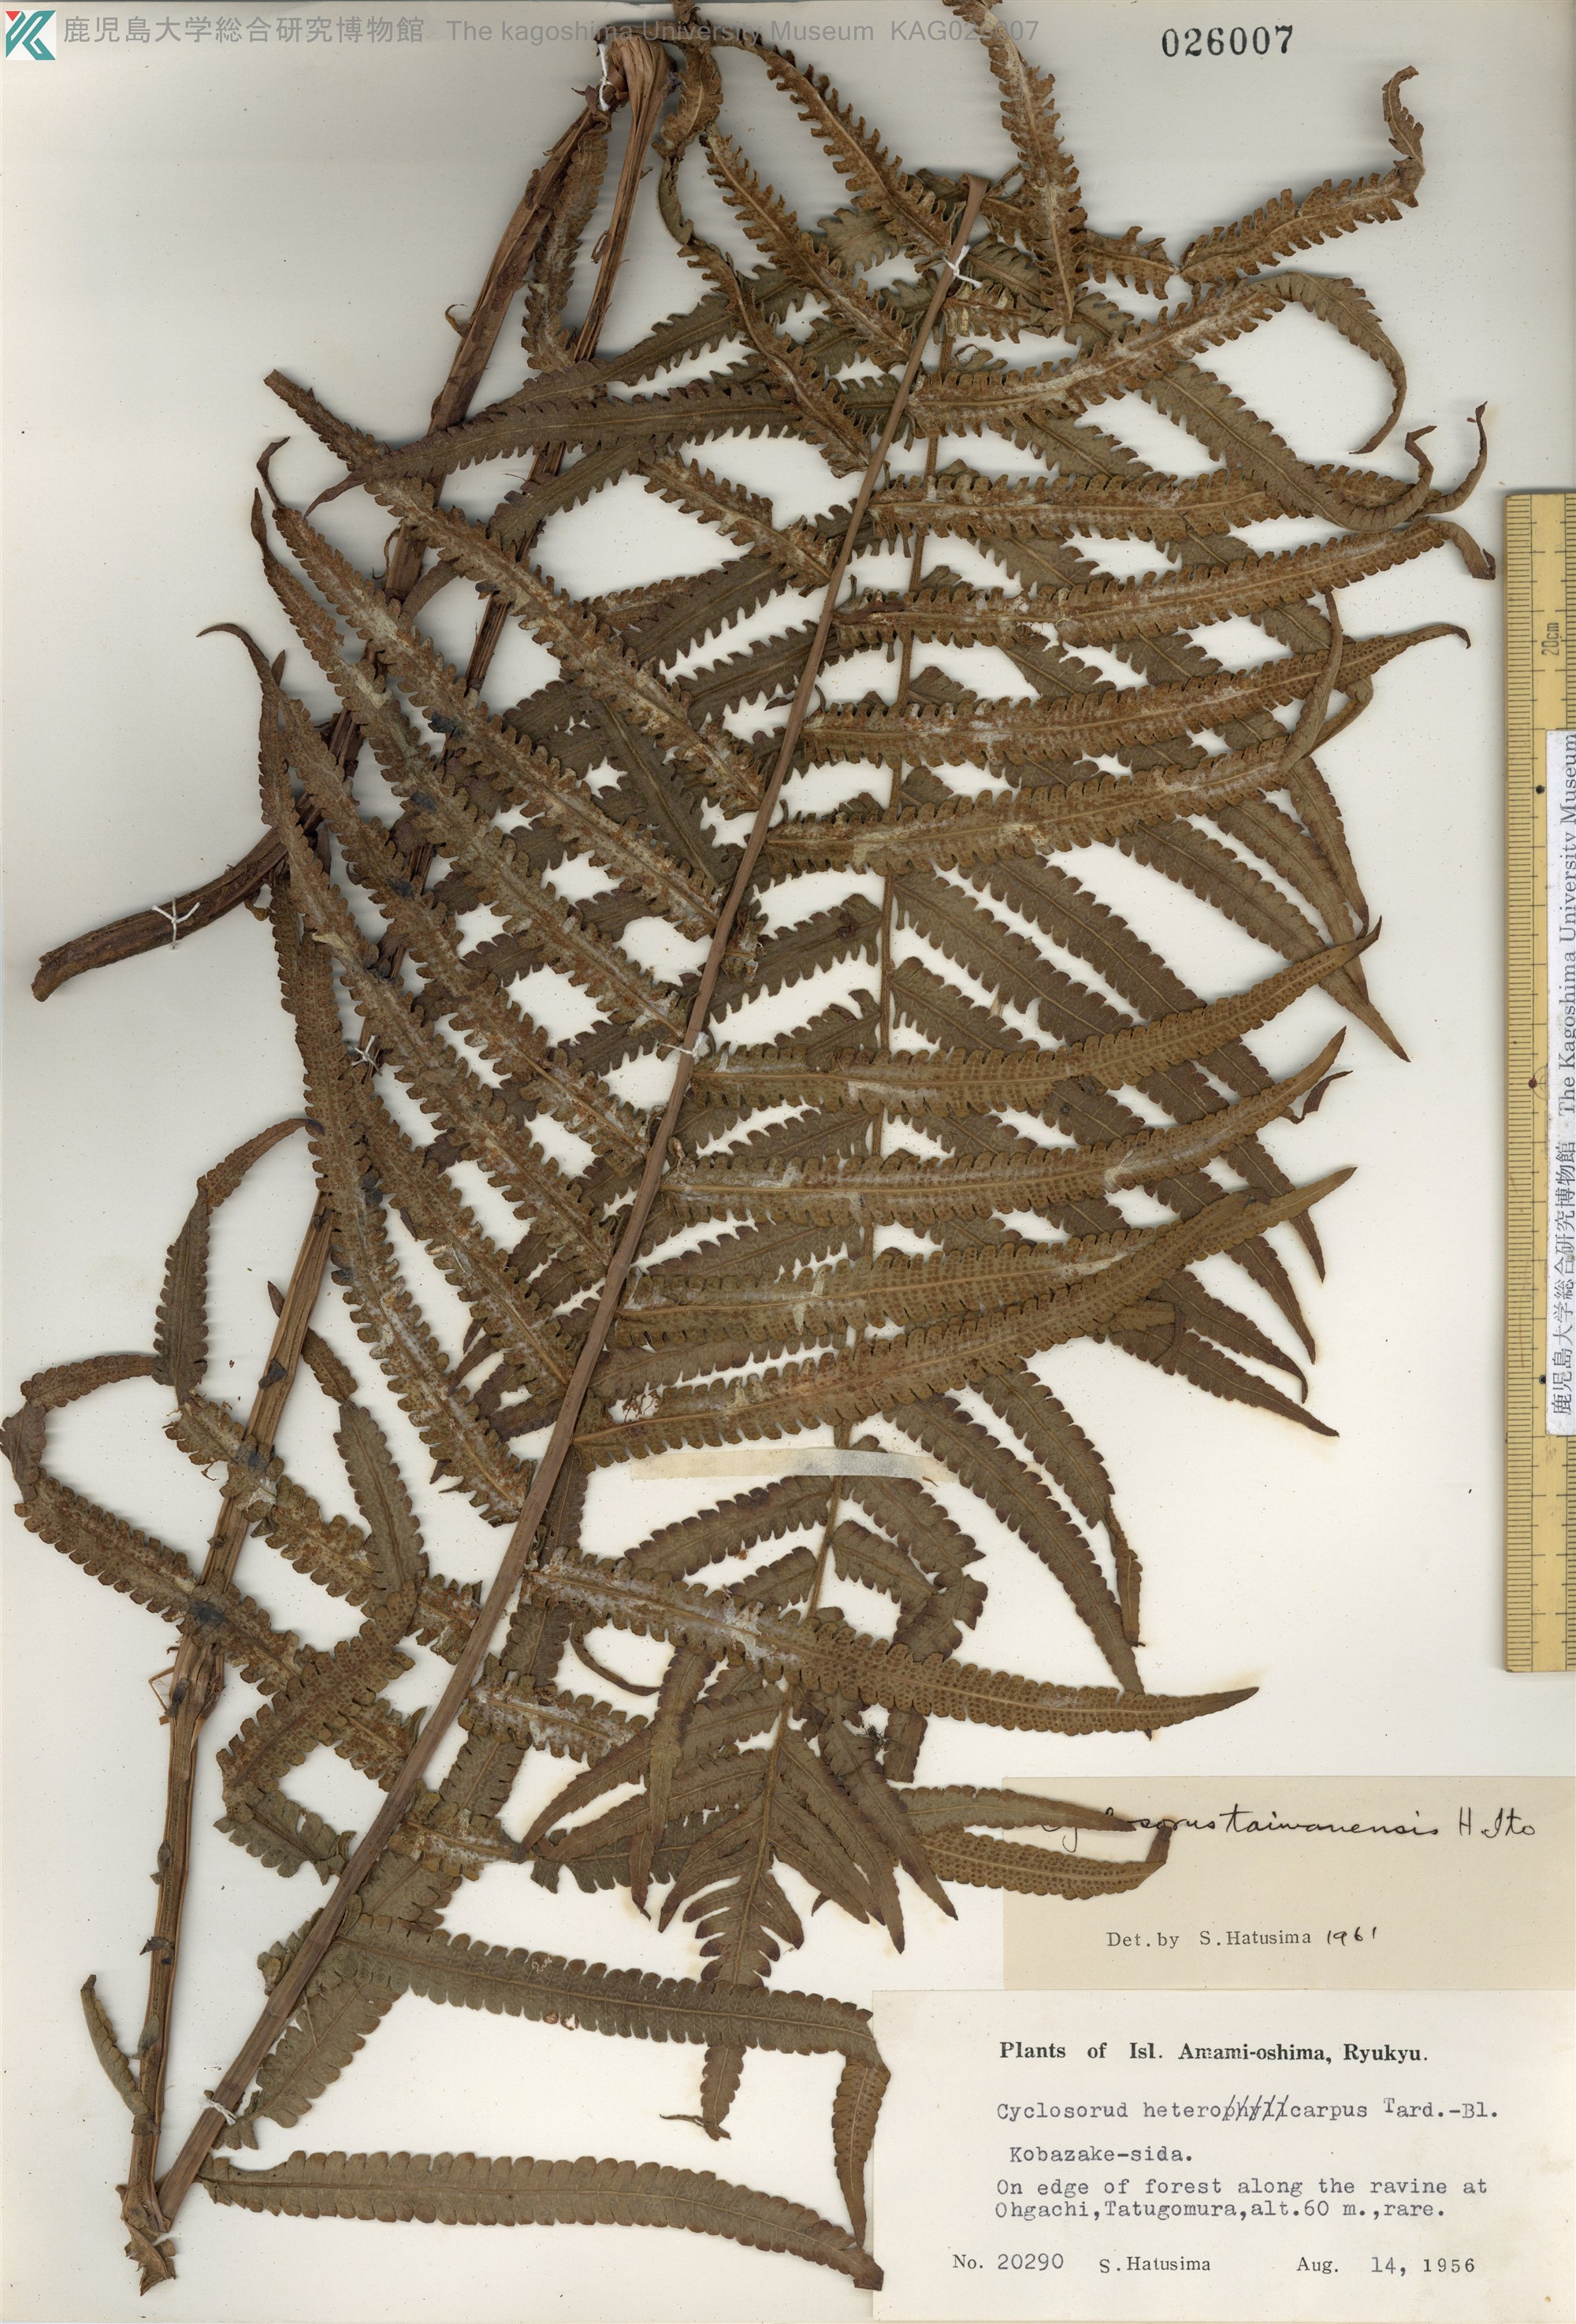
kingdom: Plantae
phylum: Tracheophyta
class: Polypodiopsida
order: Polypodiales
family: Thelypteridaceae
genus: Sphaerostephanos
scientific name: Sphaerostephanos taiwanensis
